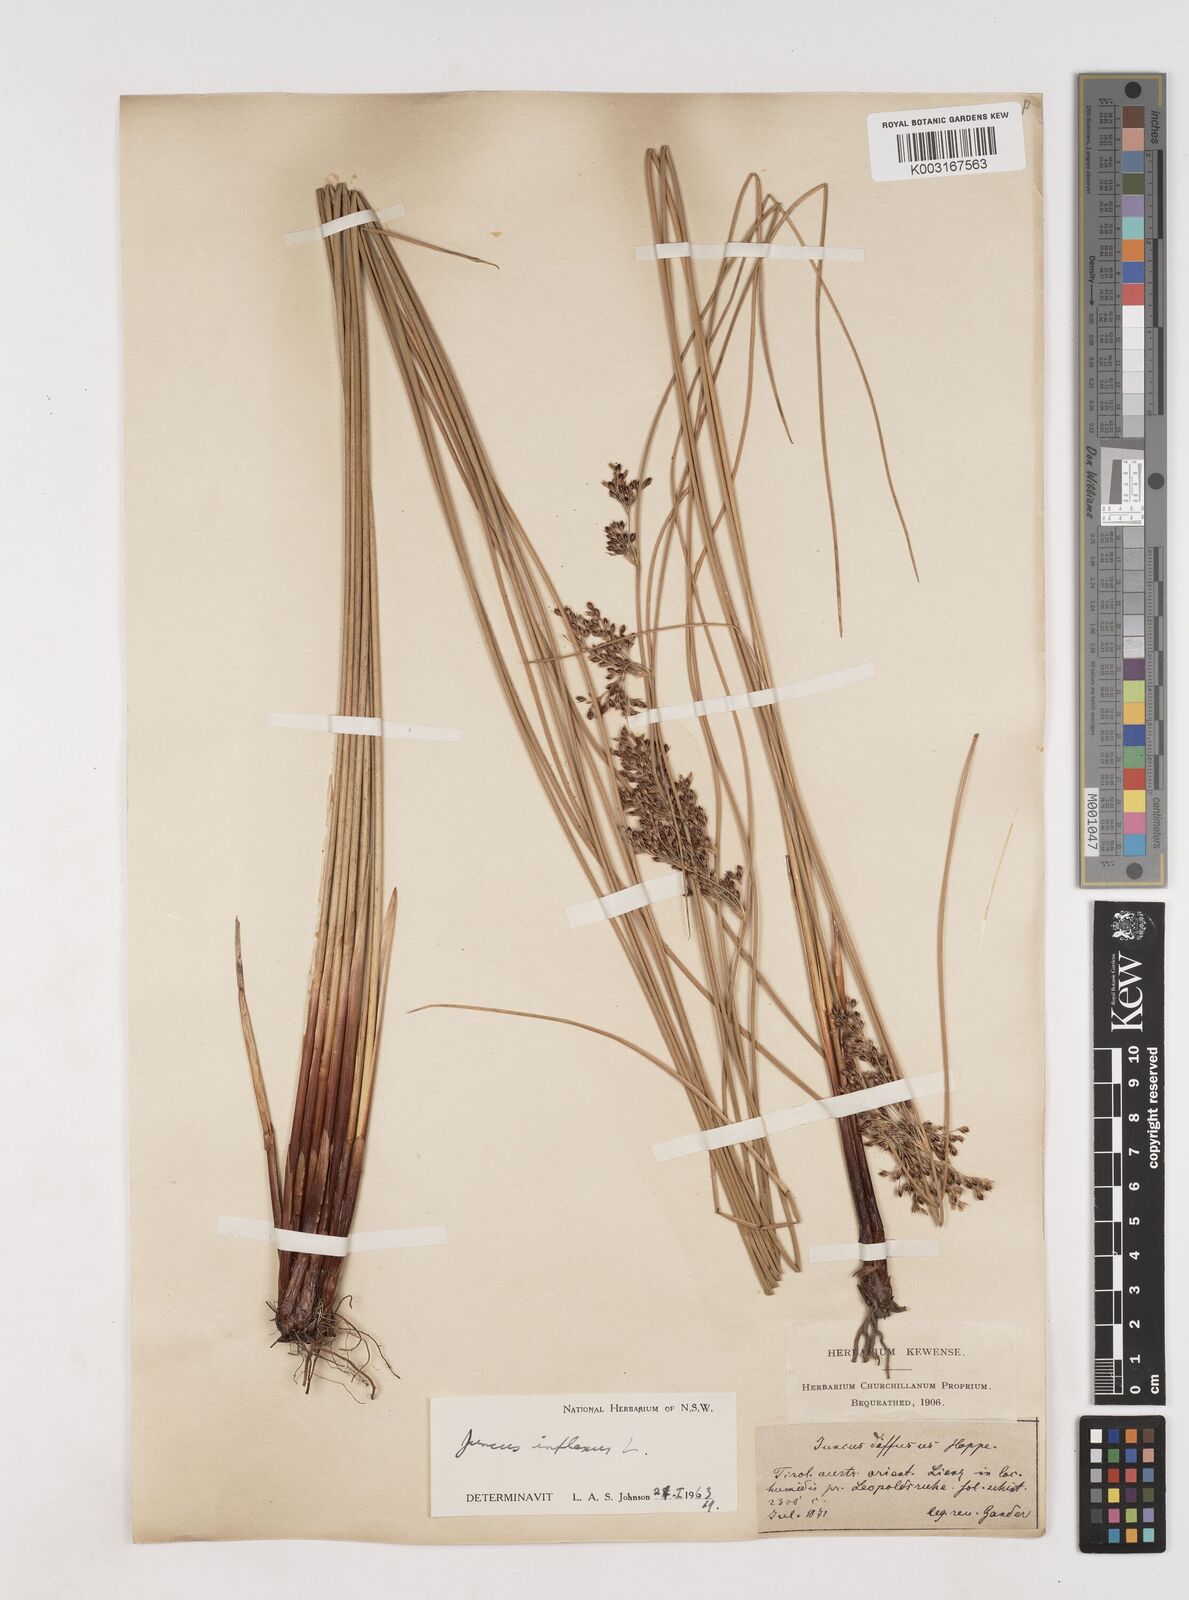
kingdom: Plantae
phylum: Tracheophyta
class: Liliopsida
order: Poales
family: Juncaceae
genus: Juncus
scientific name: Juncus inflexus
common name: Hard rush
